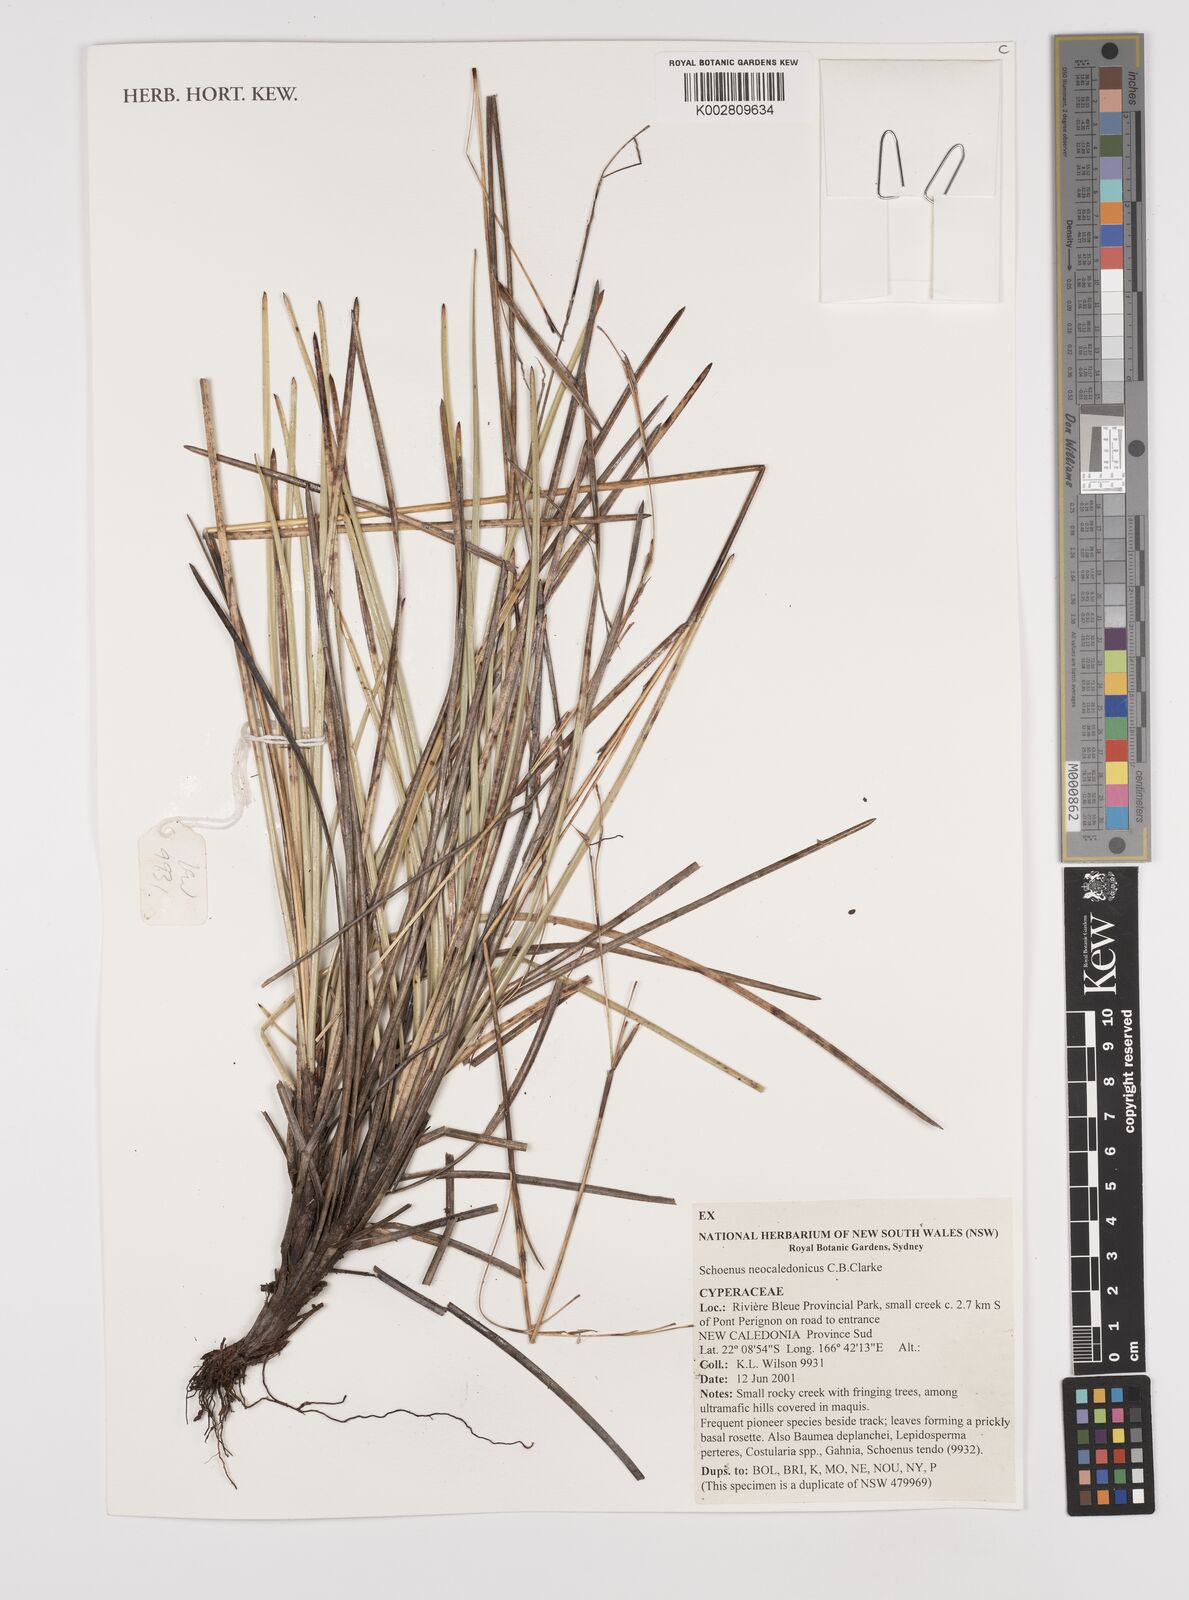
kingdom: Plantae
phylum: Tracheophyta
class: Liliopsida
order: Poales
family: Cyperaceae
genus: Schoenus
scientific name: Schoenus neocaledonicus
